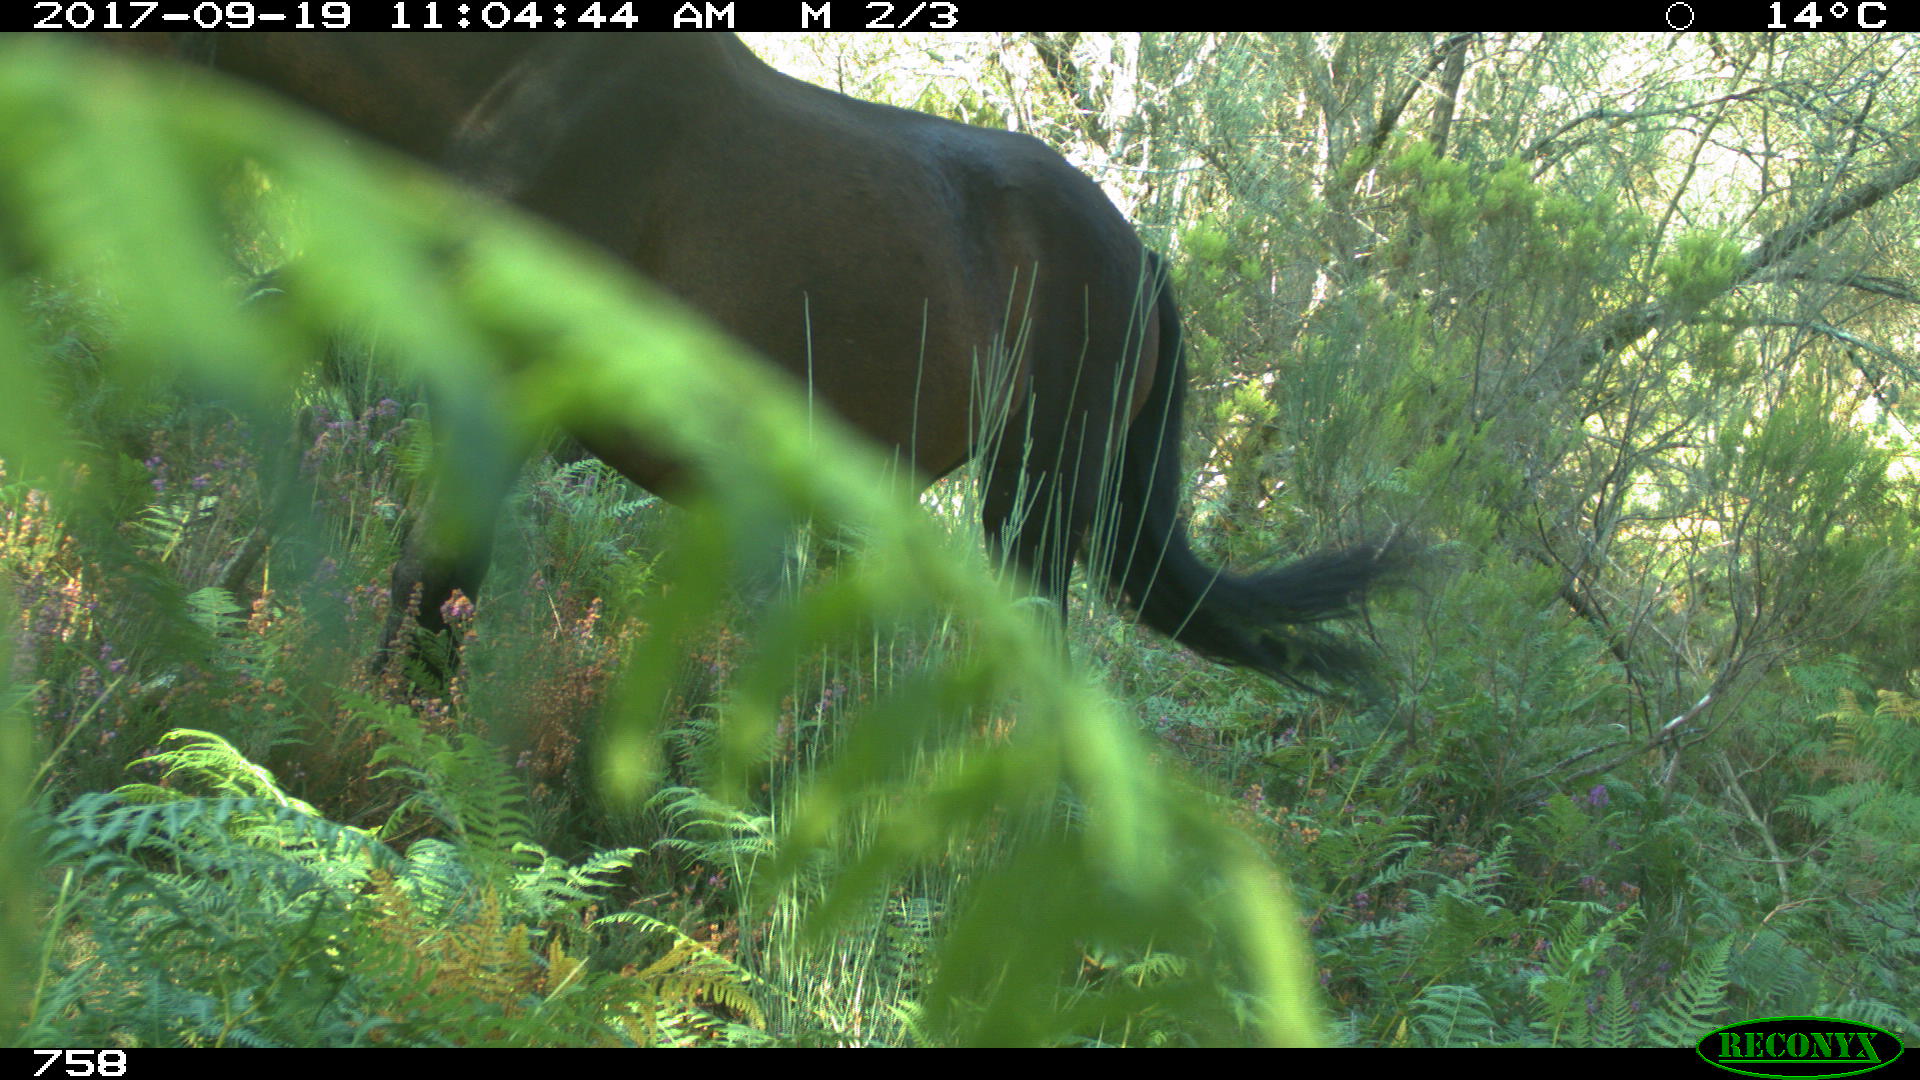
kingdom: Animalia
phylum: Chordata
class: Mammalia
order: Perissodactyla
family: Equidae
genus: Equus
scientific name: Equus caballus
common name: Horse
